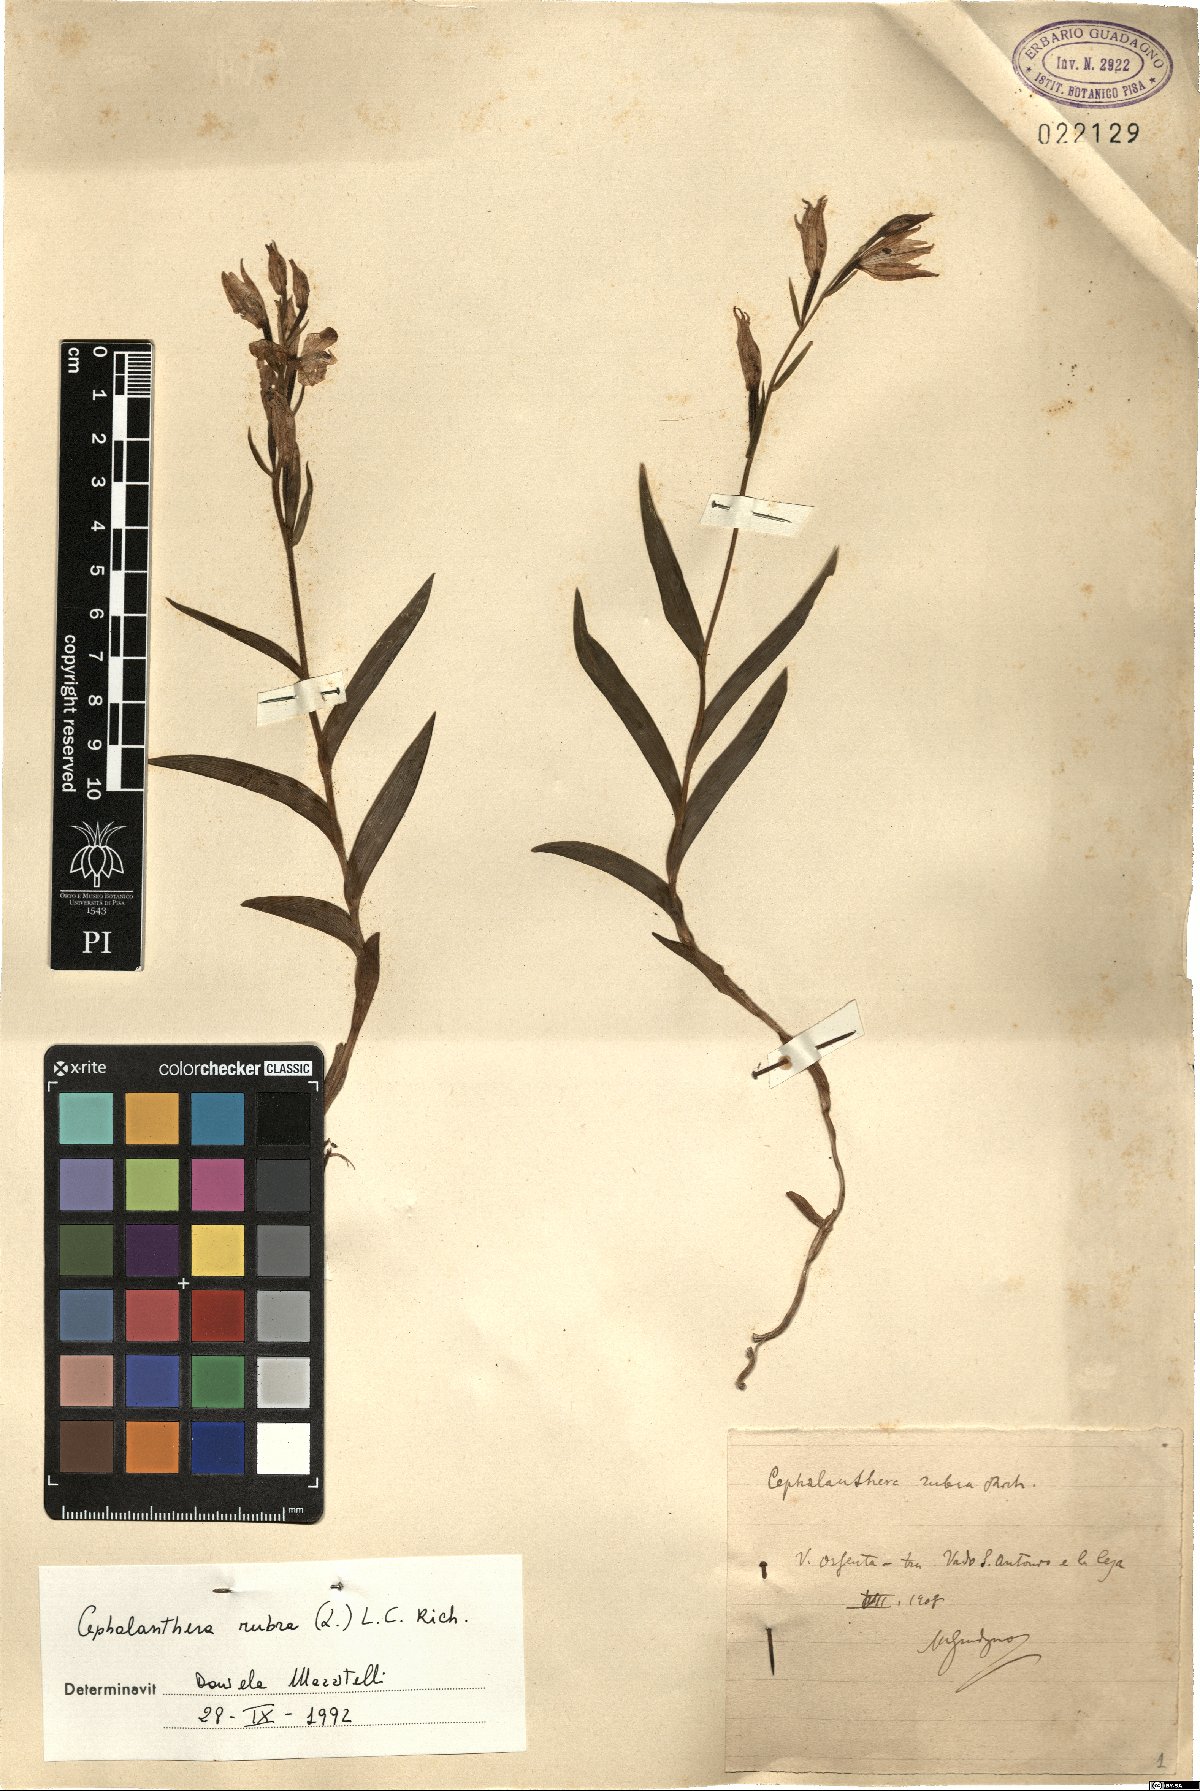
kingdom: Plantae
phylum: Tracheophyta
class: Liliopsida
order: Asparagales
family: Orchidaceae
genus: Cephalanthera
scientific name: Cephalanthera rubra
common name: Red helleborine
